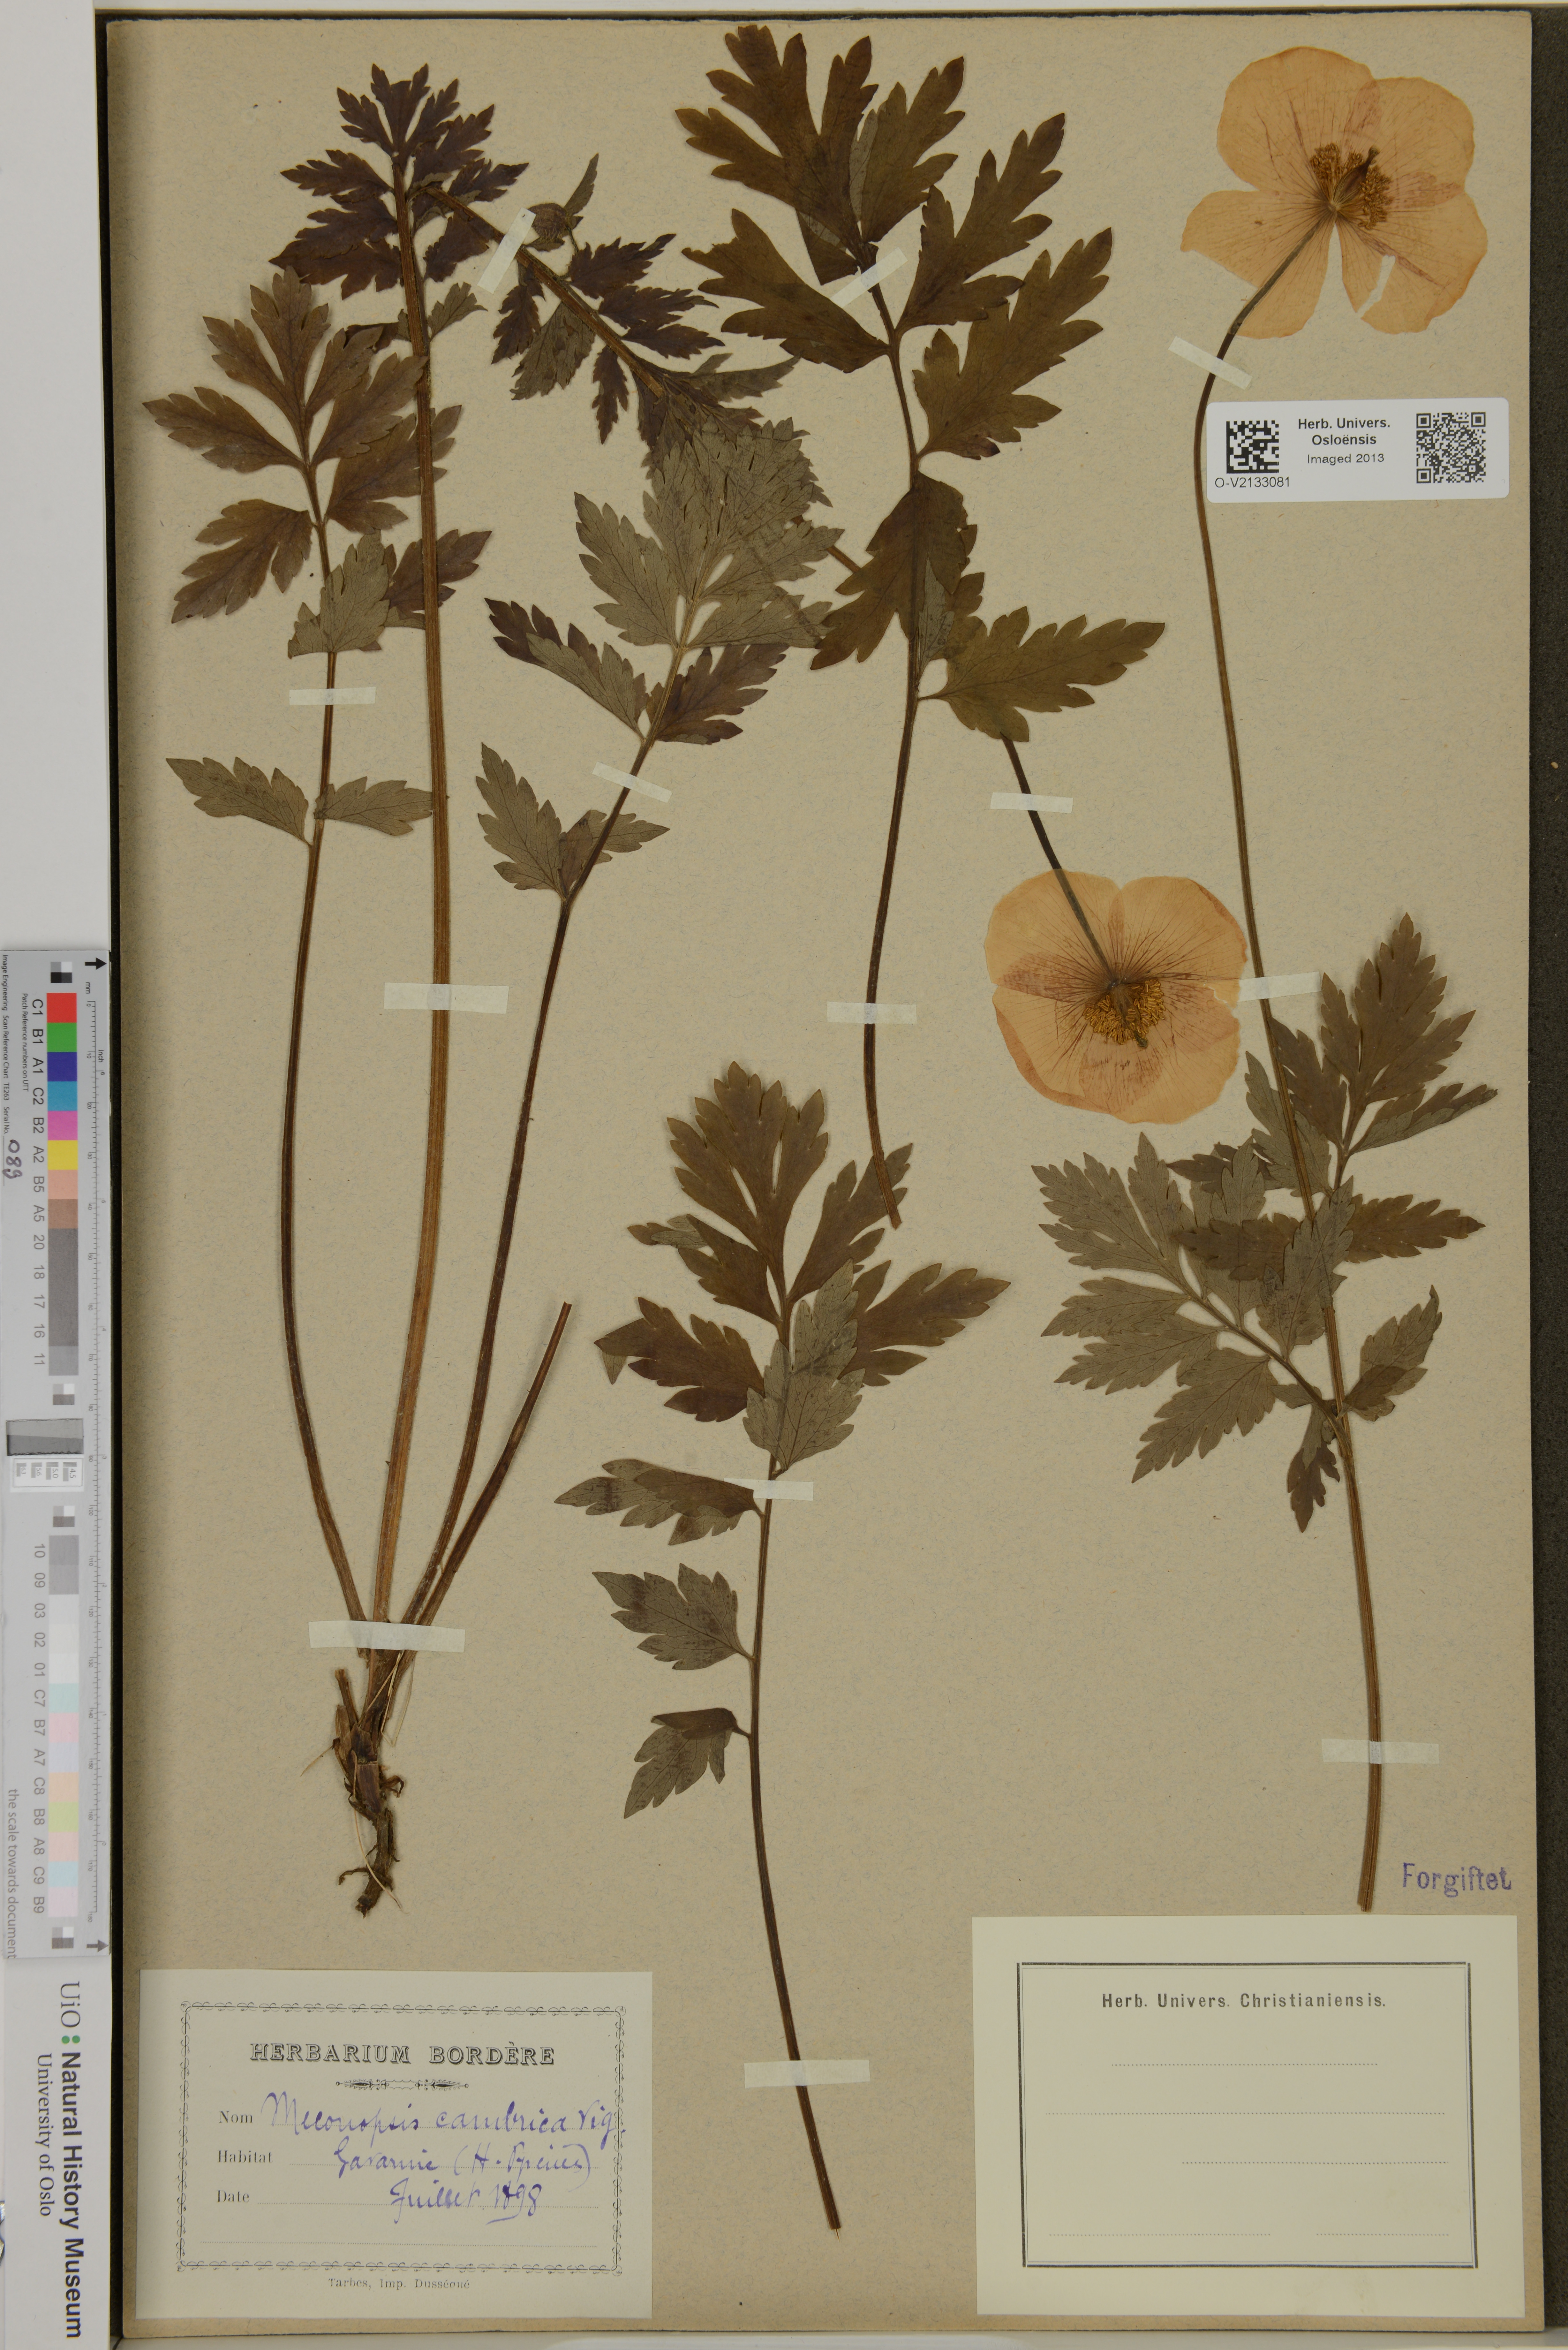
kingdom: Plantae
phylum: Tracheophyta
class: Magnoliopsida
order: Ranunculales
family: Papaveraceae
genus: Papaver
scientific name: Papaver cambricum
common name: Poppy
